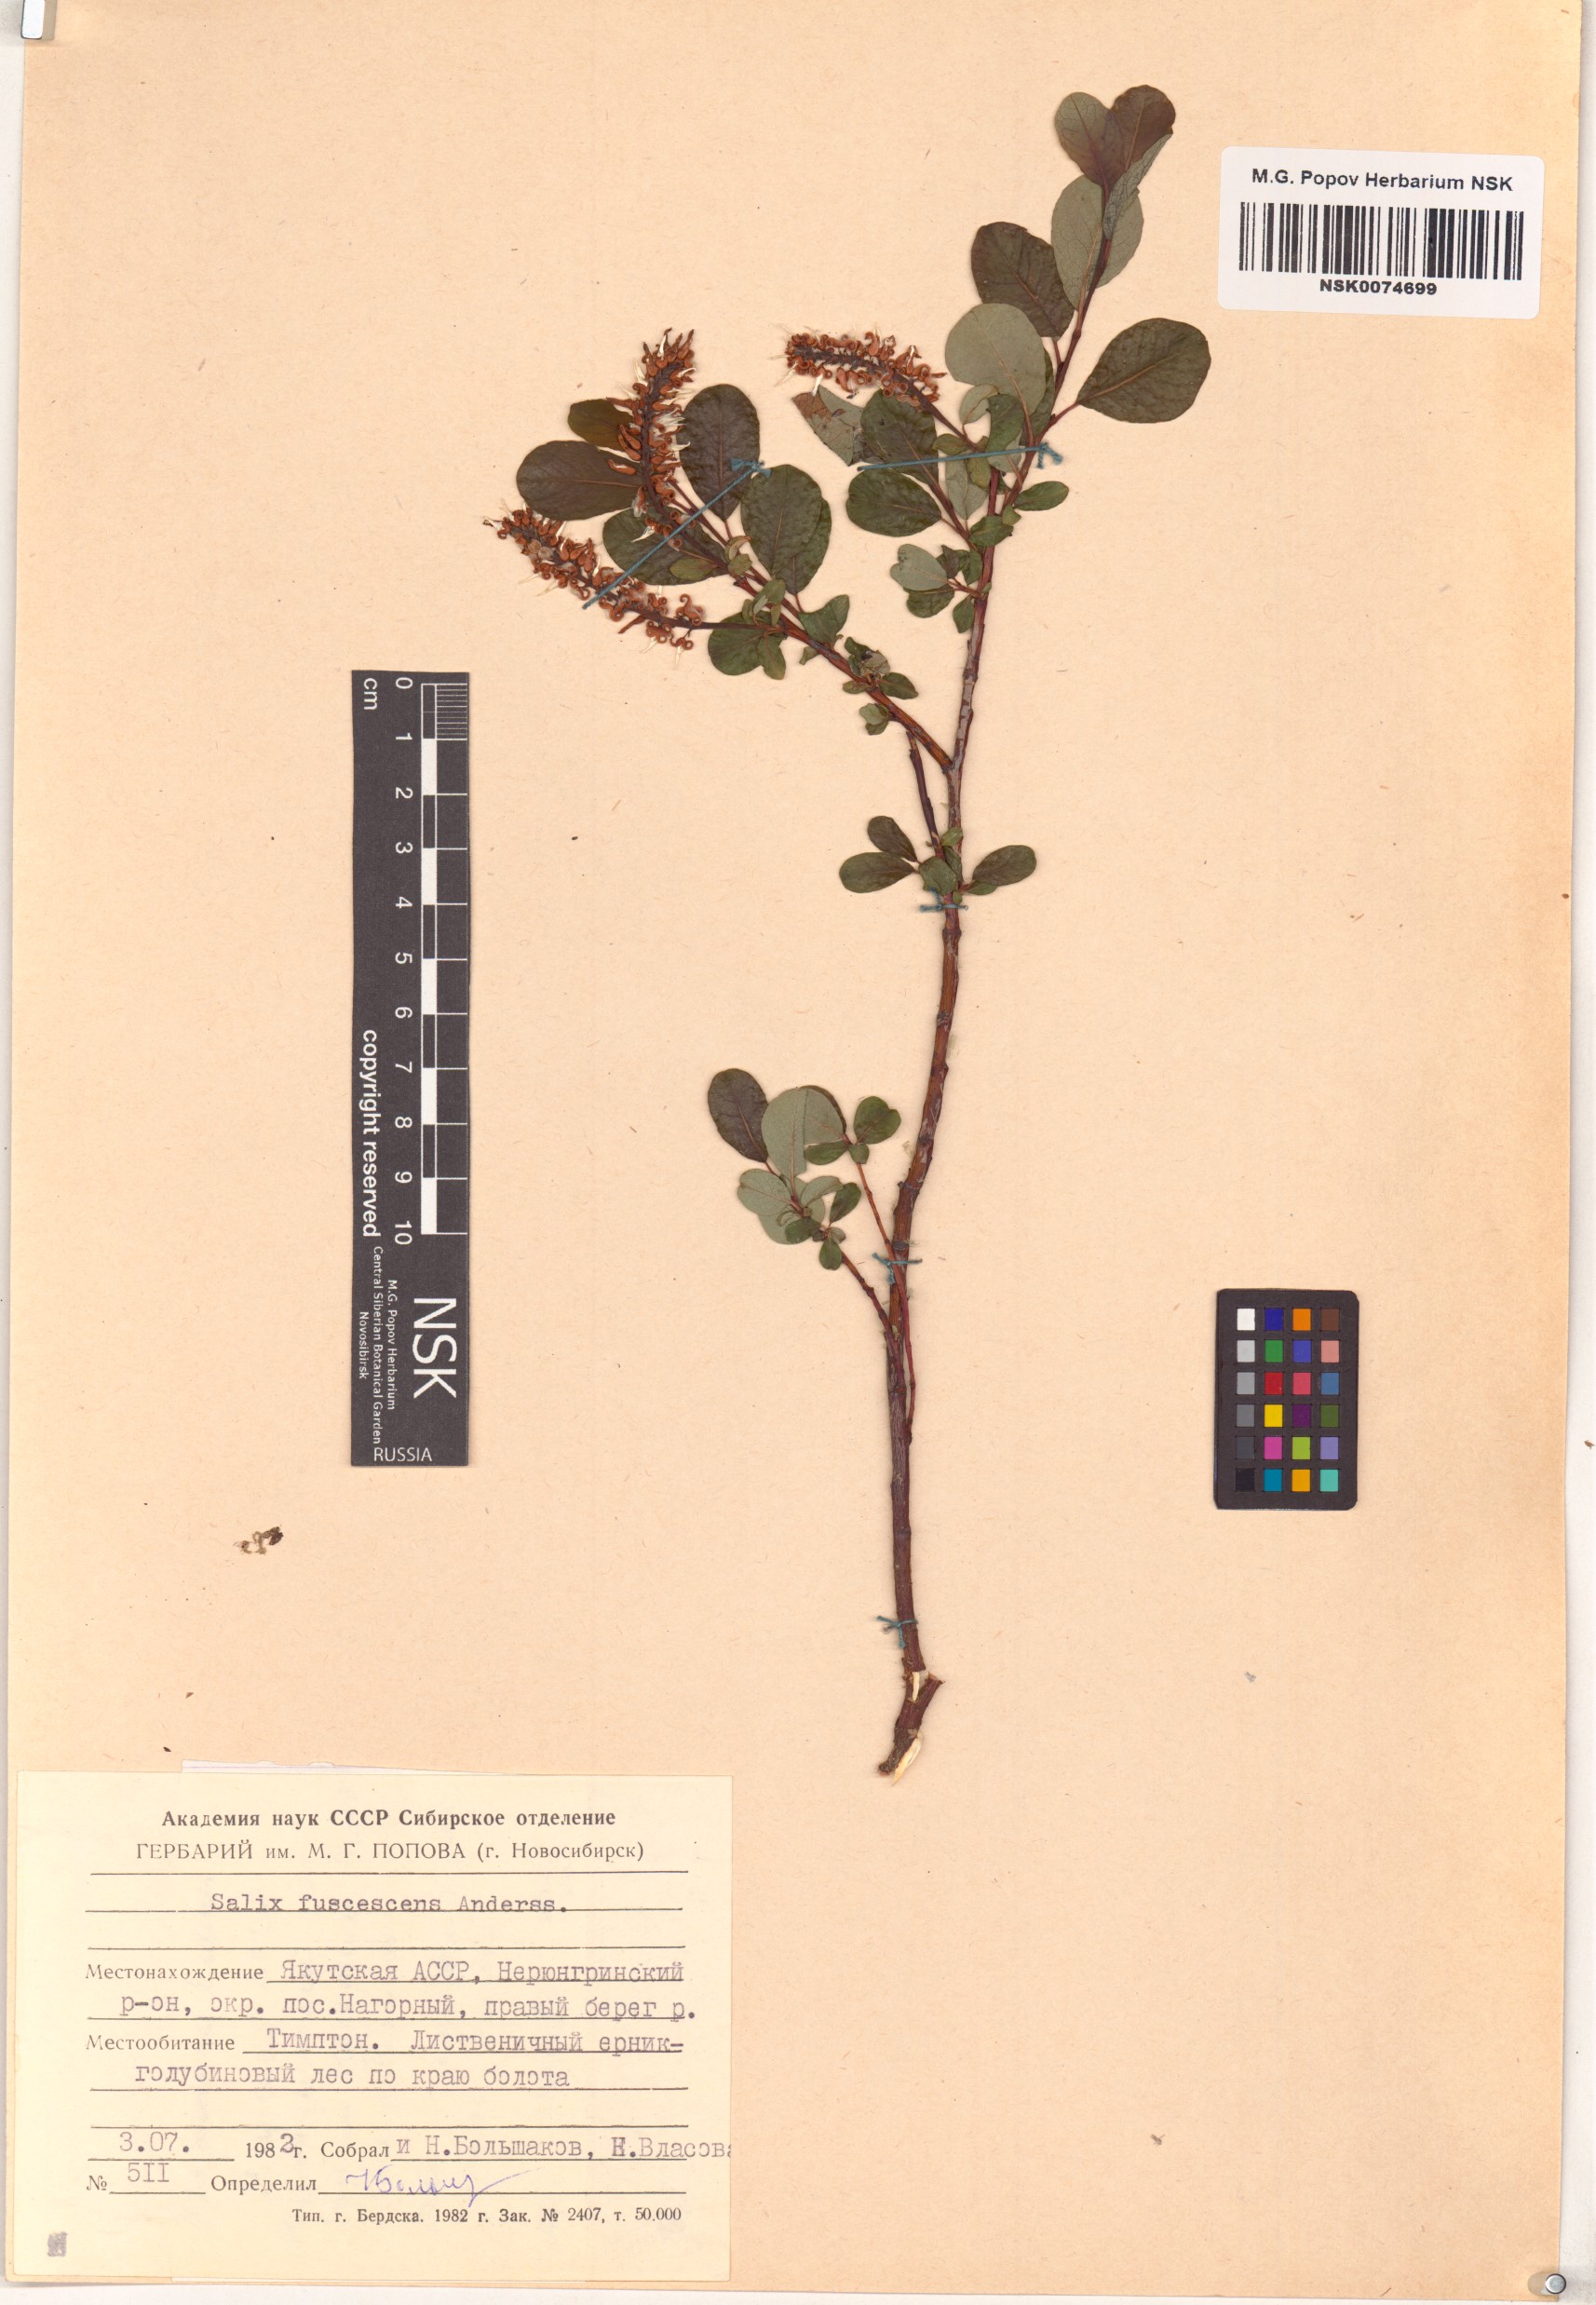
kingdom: Plantae
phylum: Tracheophyta
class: Magnoliopsida
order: Malpighiales
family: Salicaceae
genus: Salix
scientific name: Salix fuscescens
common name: Brownish willow
